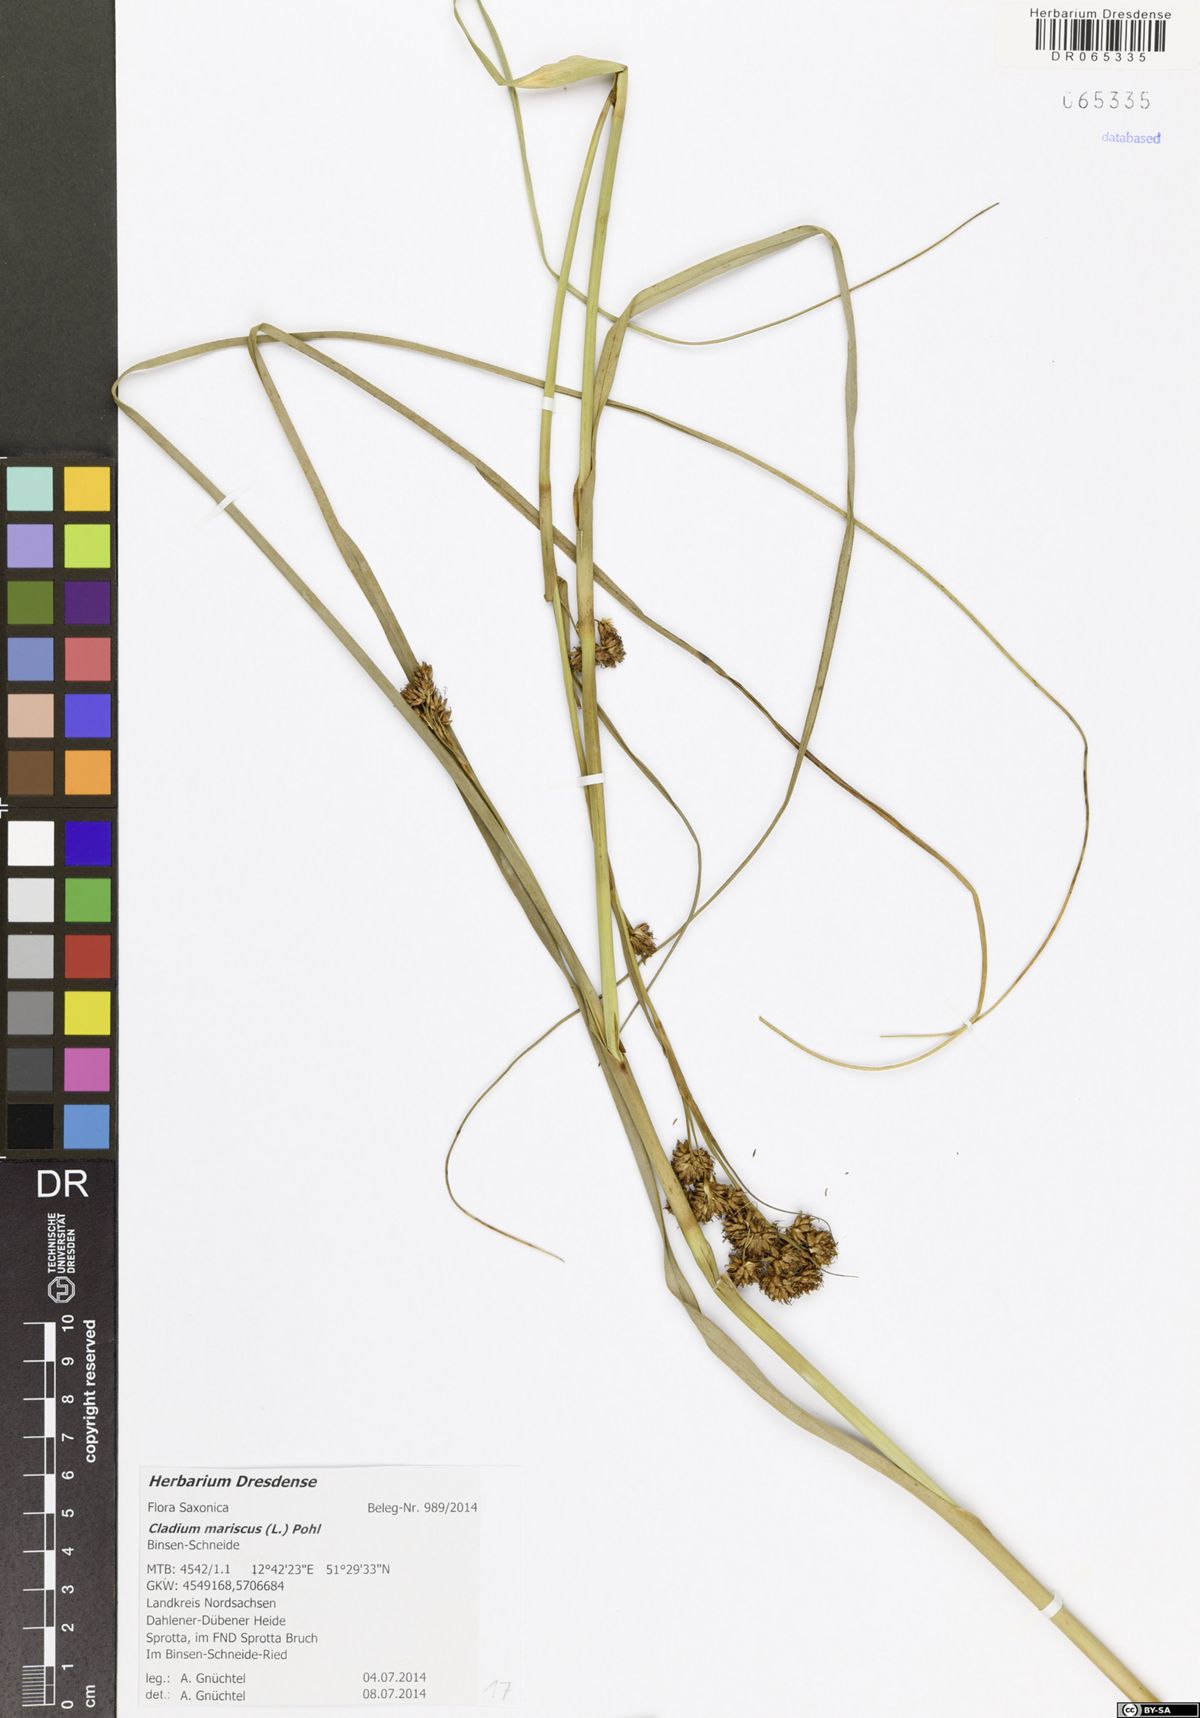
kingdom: Plantae
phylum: Tracheophyta
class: Liliopsida
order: Poales
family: Cyperaceae
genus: Cladium
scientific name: Cladium mariscus
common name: Great fen-sedge
